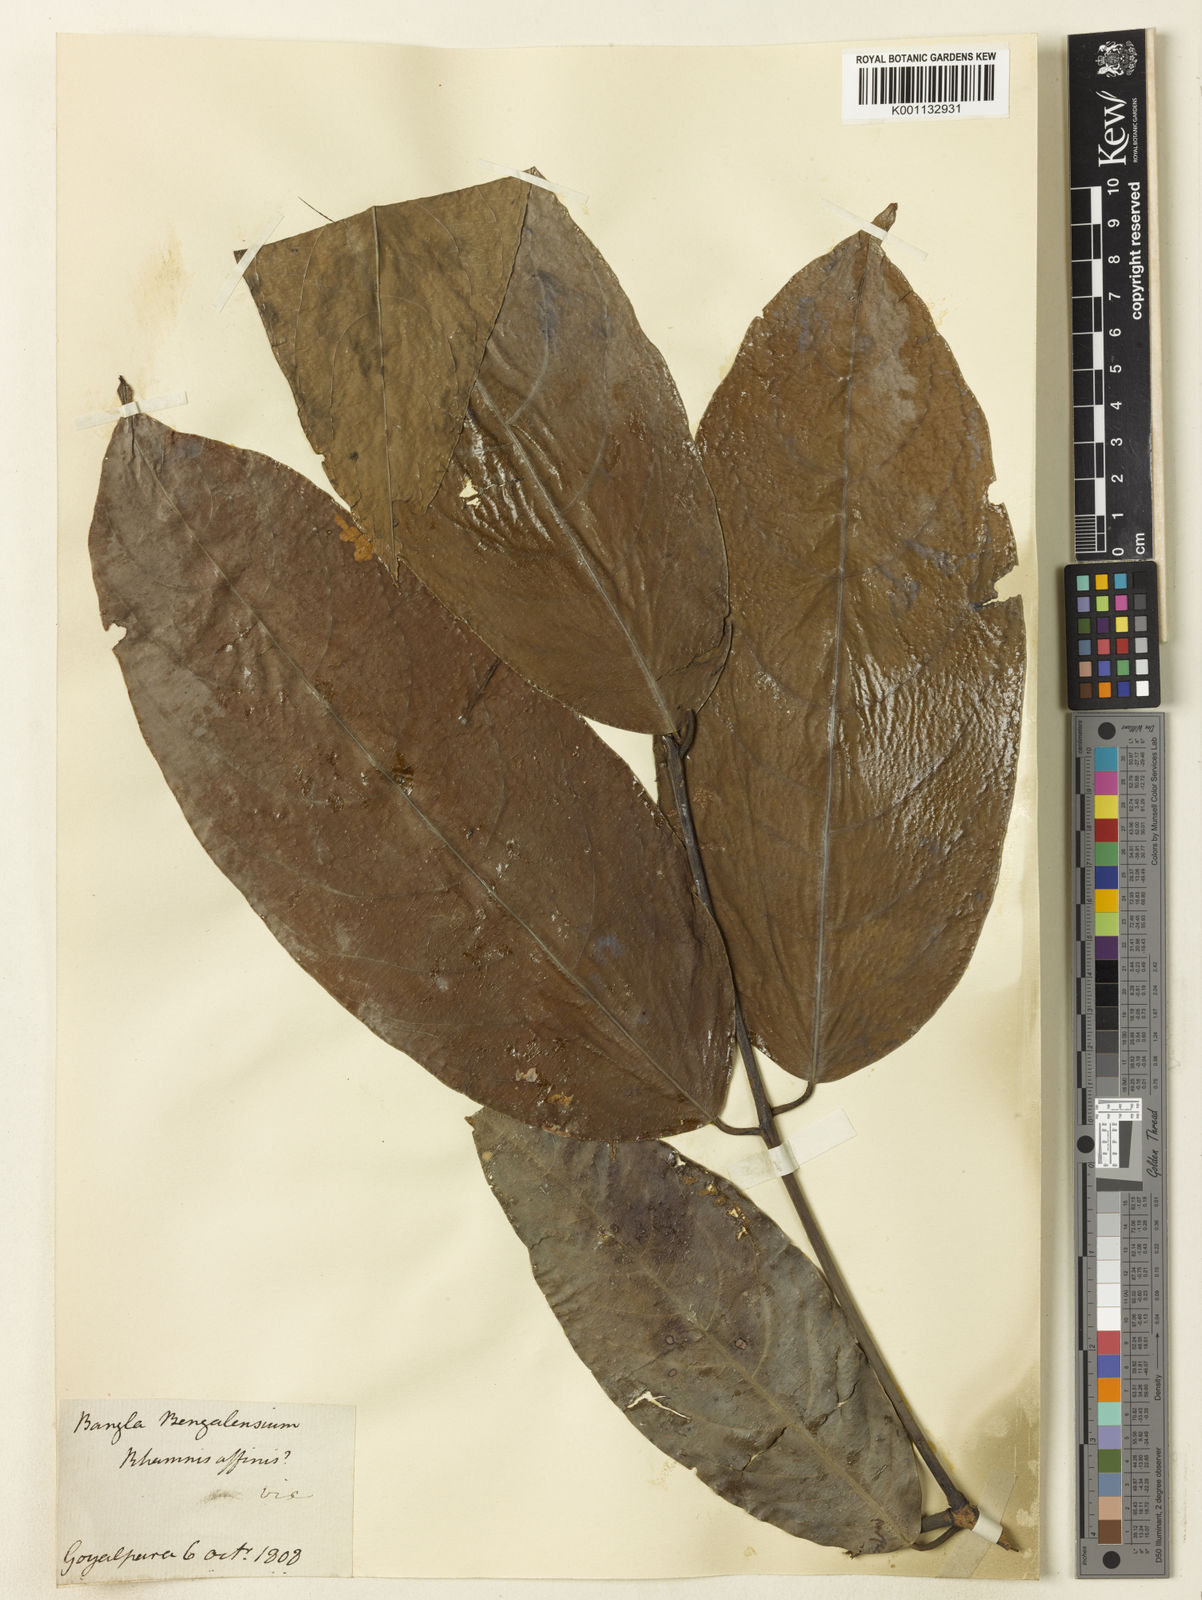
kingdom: Plantae
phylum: Tracheophyta
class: Magnoliopsida
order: Rosales
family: Rhamnaceae
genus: Rhamnus
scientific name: Rhamnus
